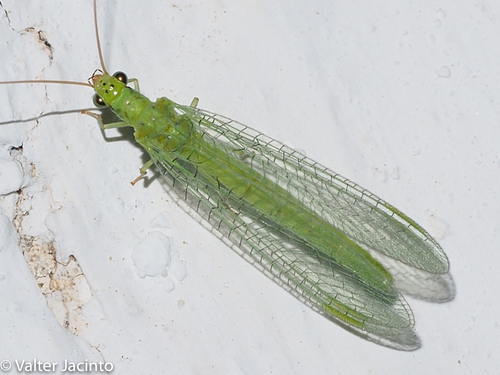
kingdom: Animalia
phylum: Arthropoda
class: Insecta
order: Neuroptera
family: Chrysopidae
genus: Chrysopa
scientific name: Chrysopa formosa
